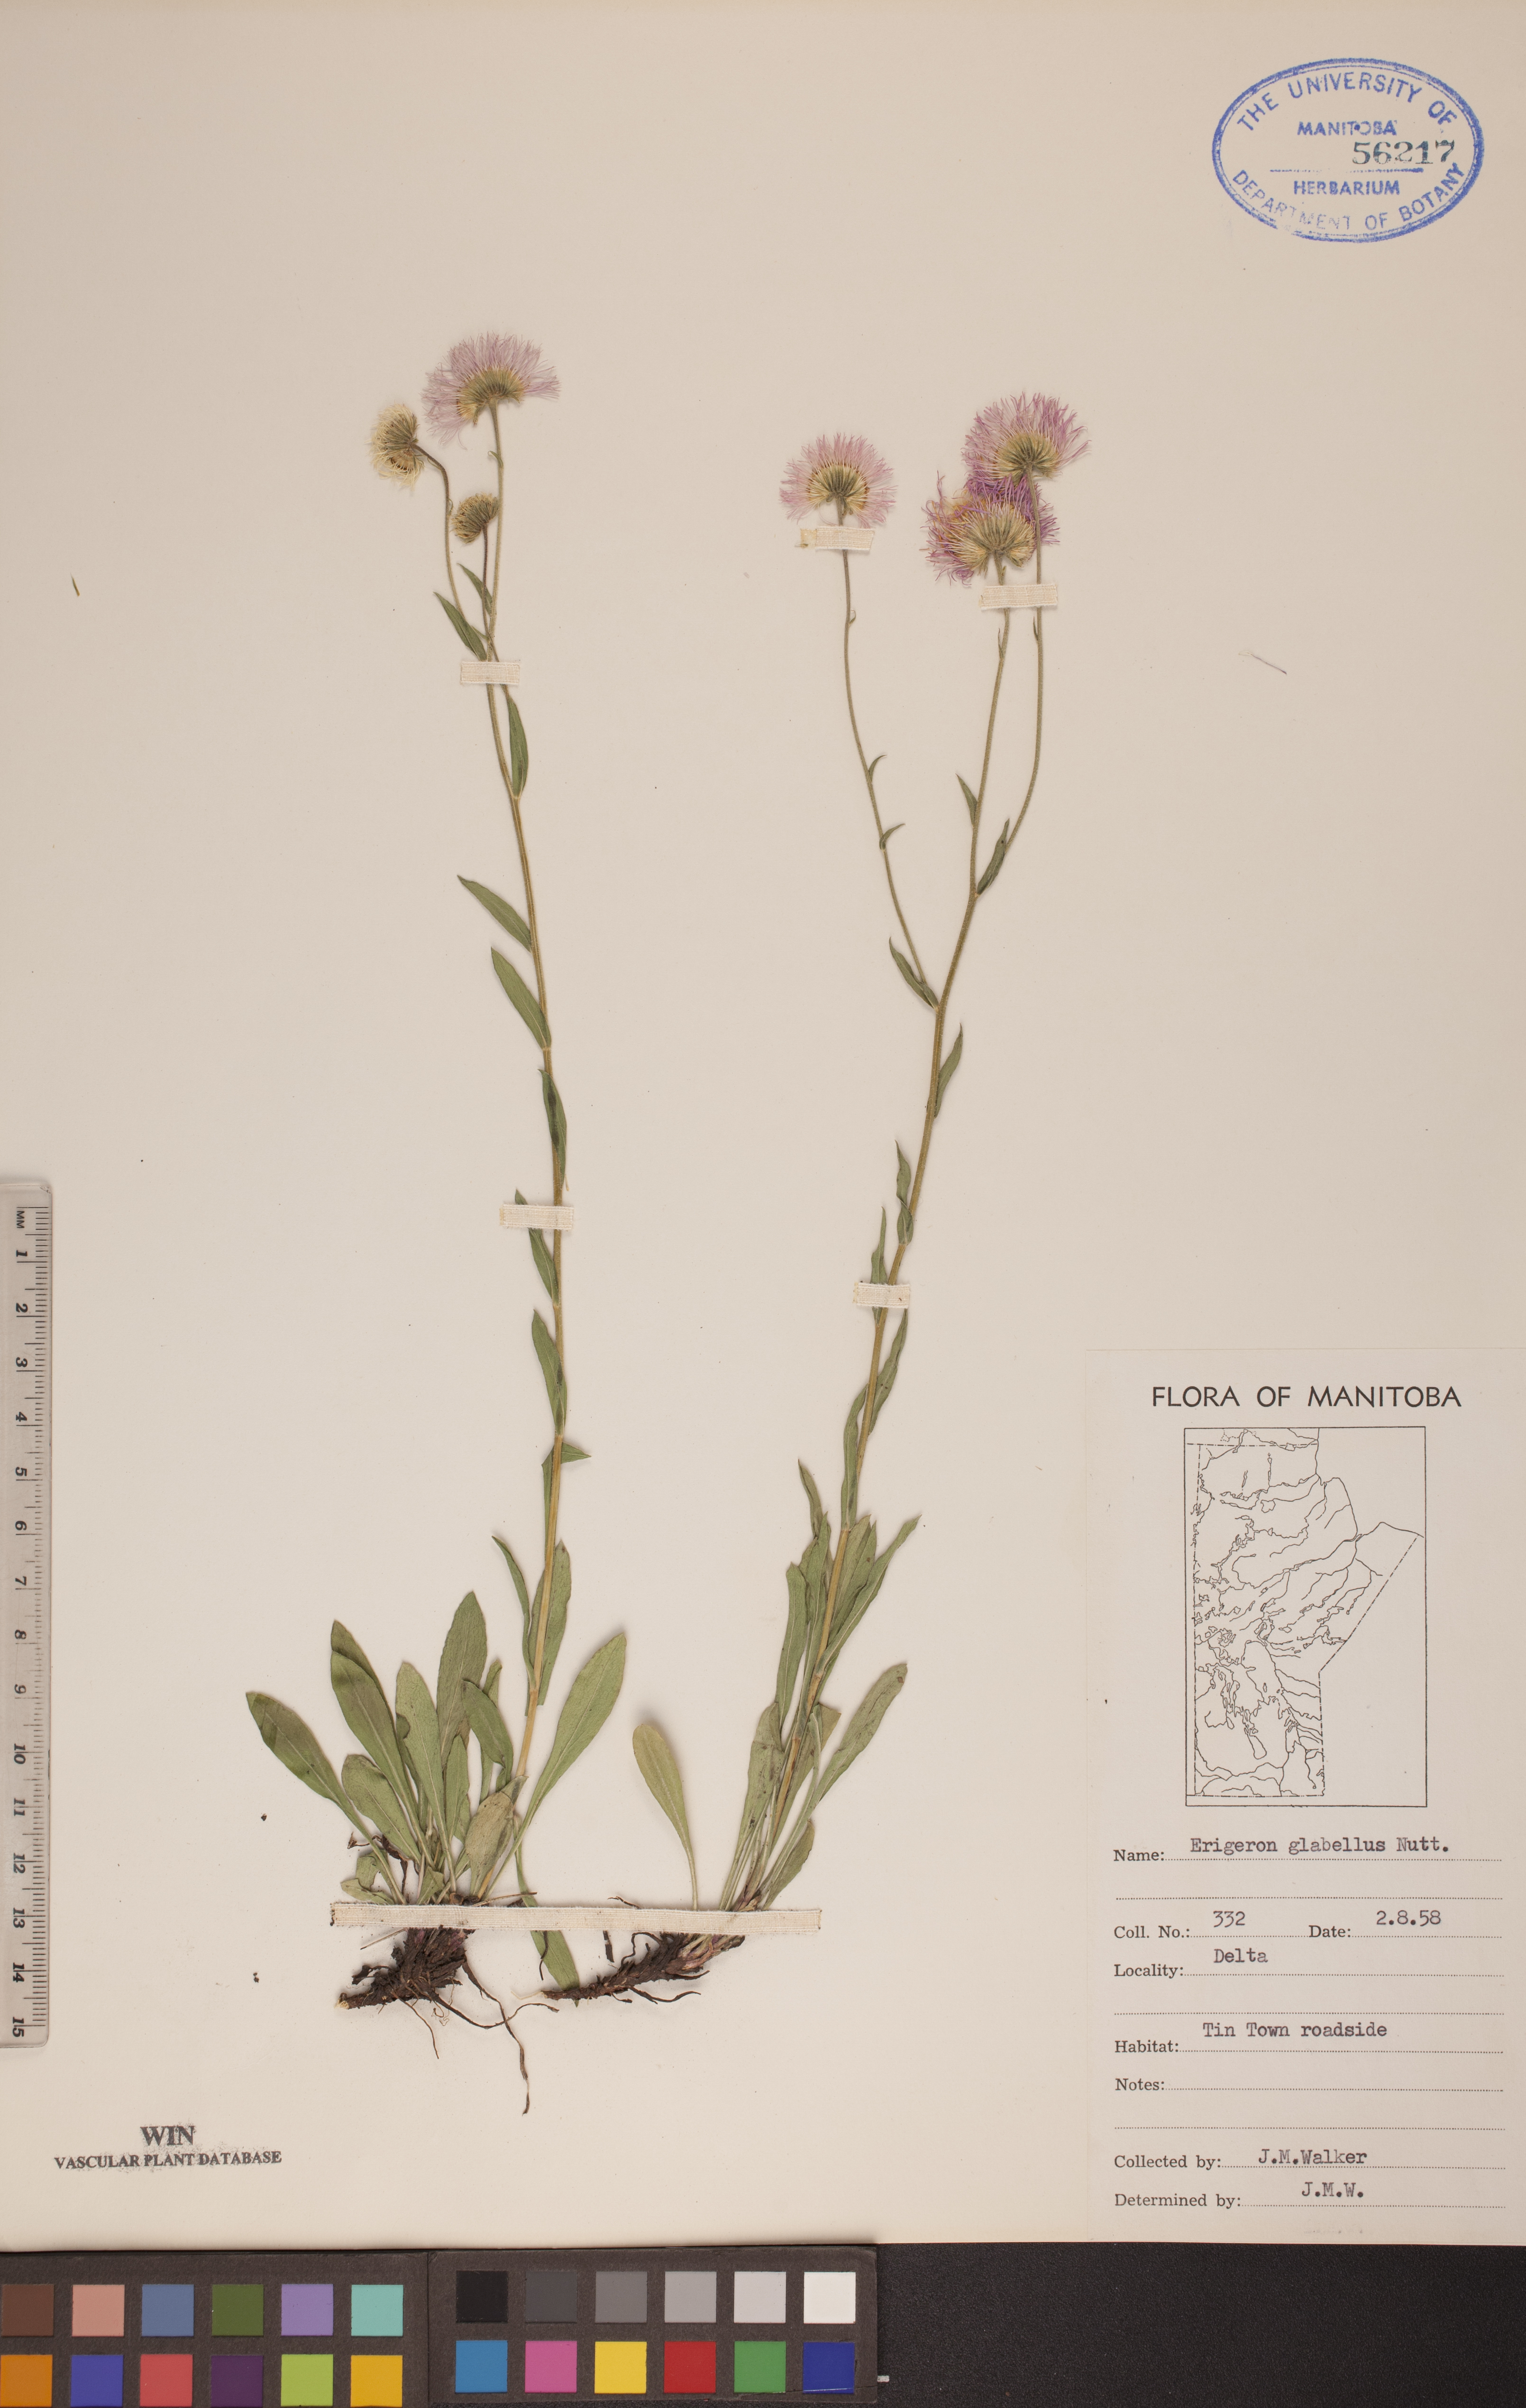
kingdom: Plantae
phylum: Tracheophyta
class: Magnoliopsida
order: Asterales
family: Asteraceae
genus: Erigeron
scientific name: Erigeron glabellus
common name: Smooth fleabane
